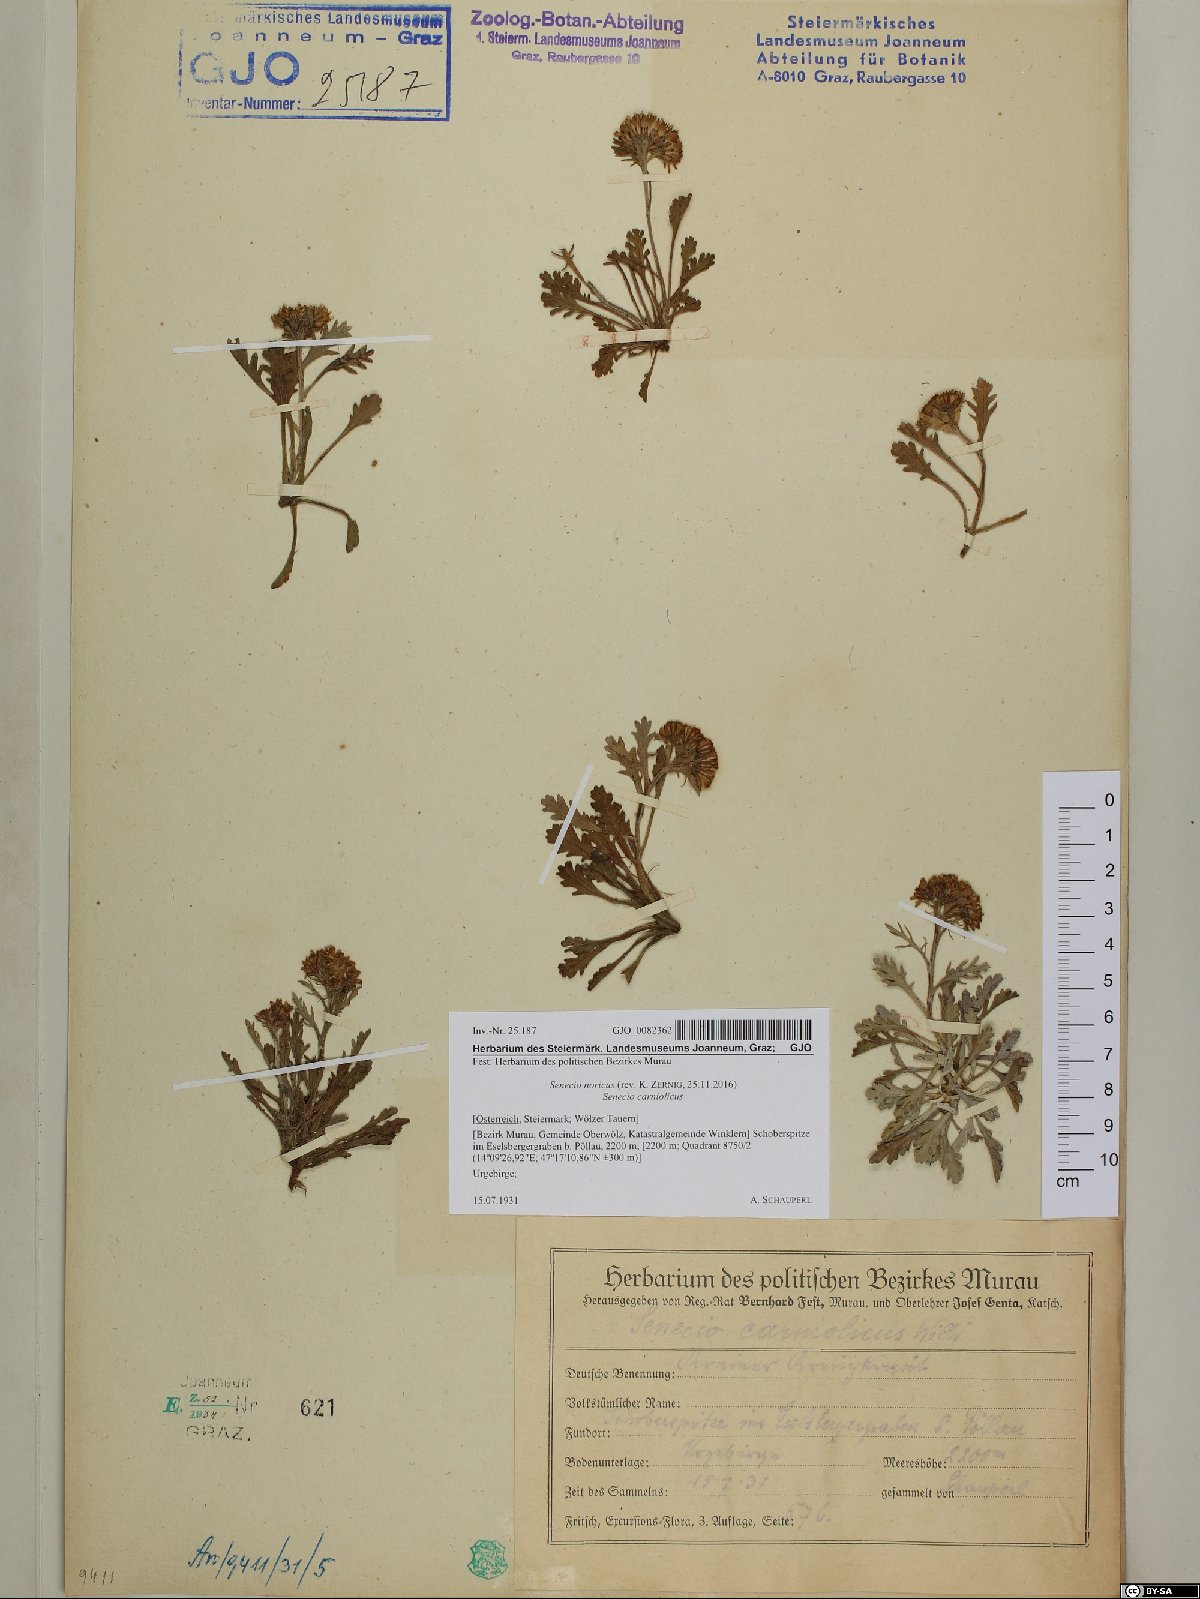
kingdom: Plantae
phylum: Tracheophyta
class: Magnoliopsida
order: Asterales
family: Asteraceae
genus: Jacobaea
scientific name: Jacobaea norica
